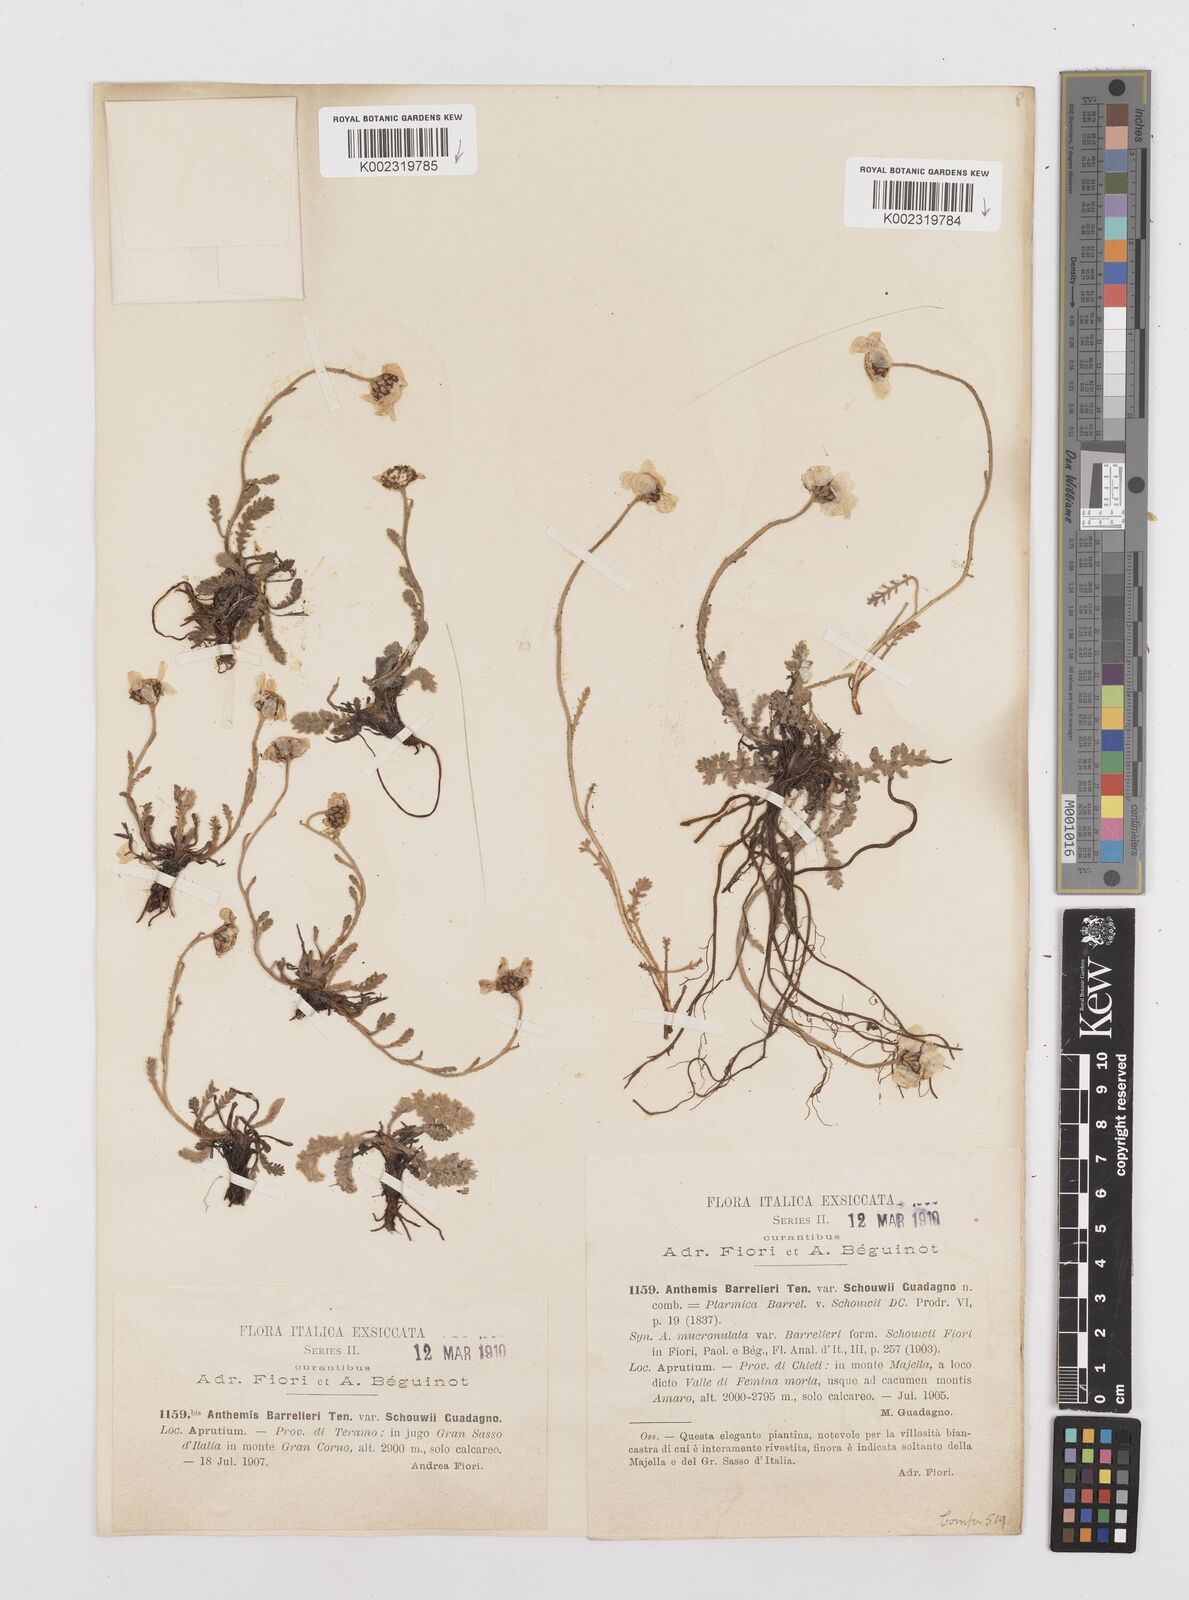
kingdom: Plantae
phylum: Tracheophyta
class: Magnoliopsida
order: Asterales
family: Asteraceae
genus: Achillea
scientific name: Achillea barrelieri
